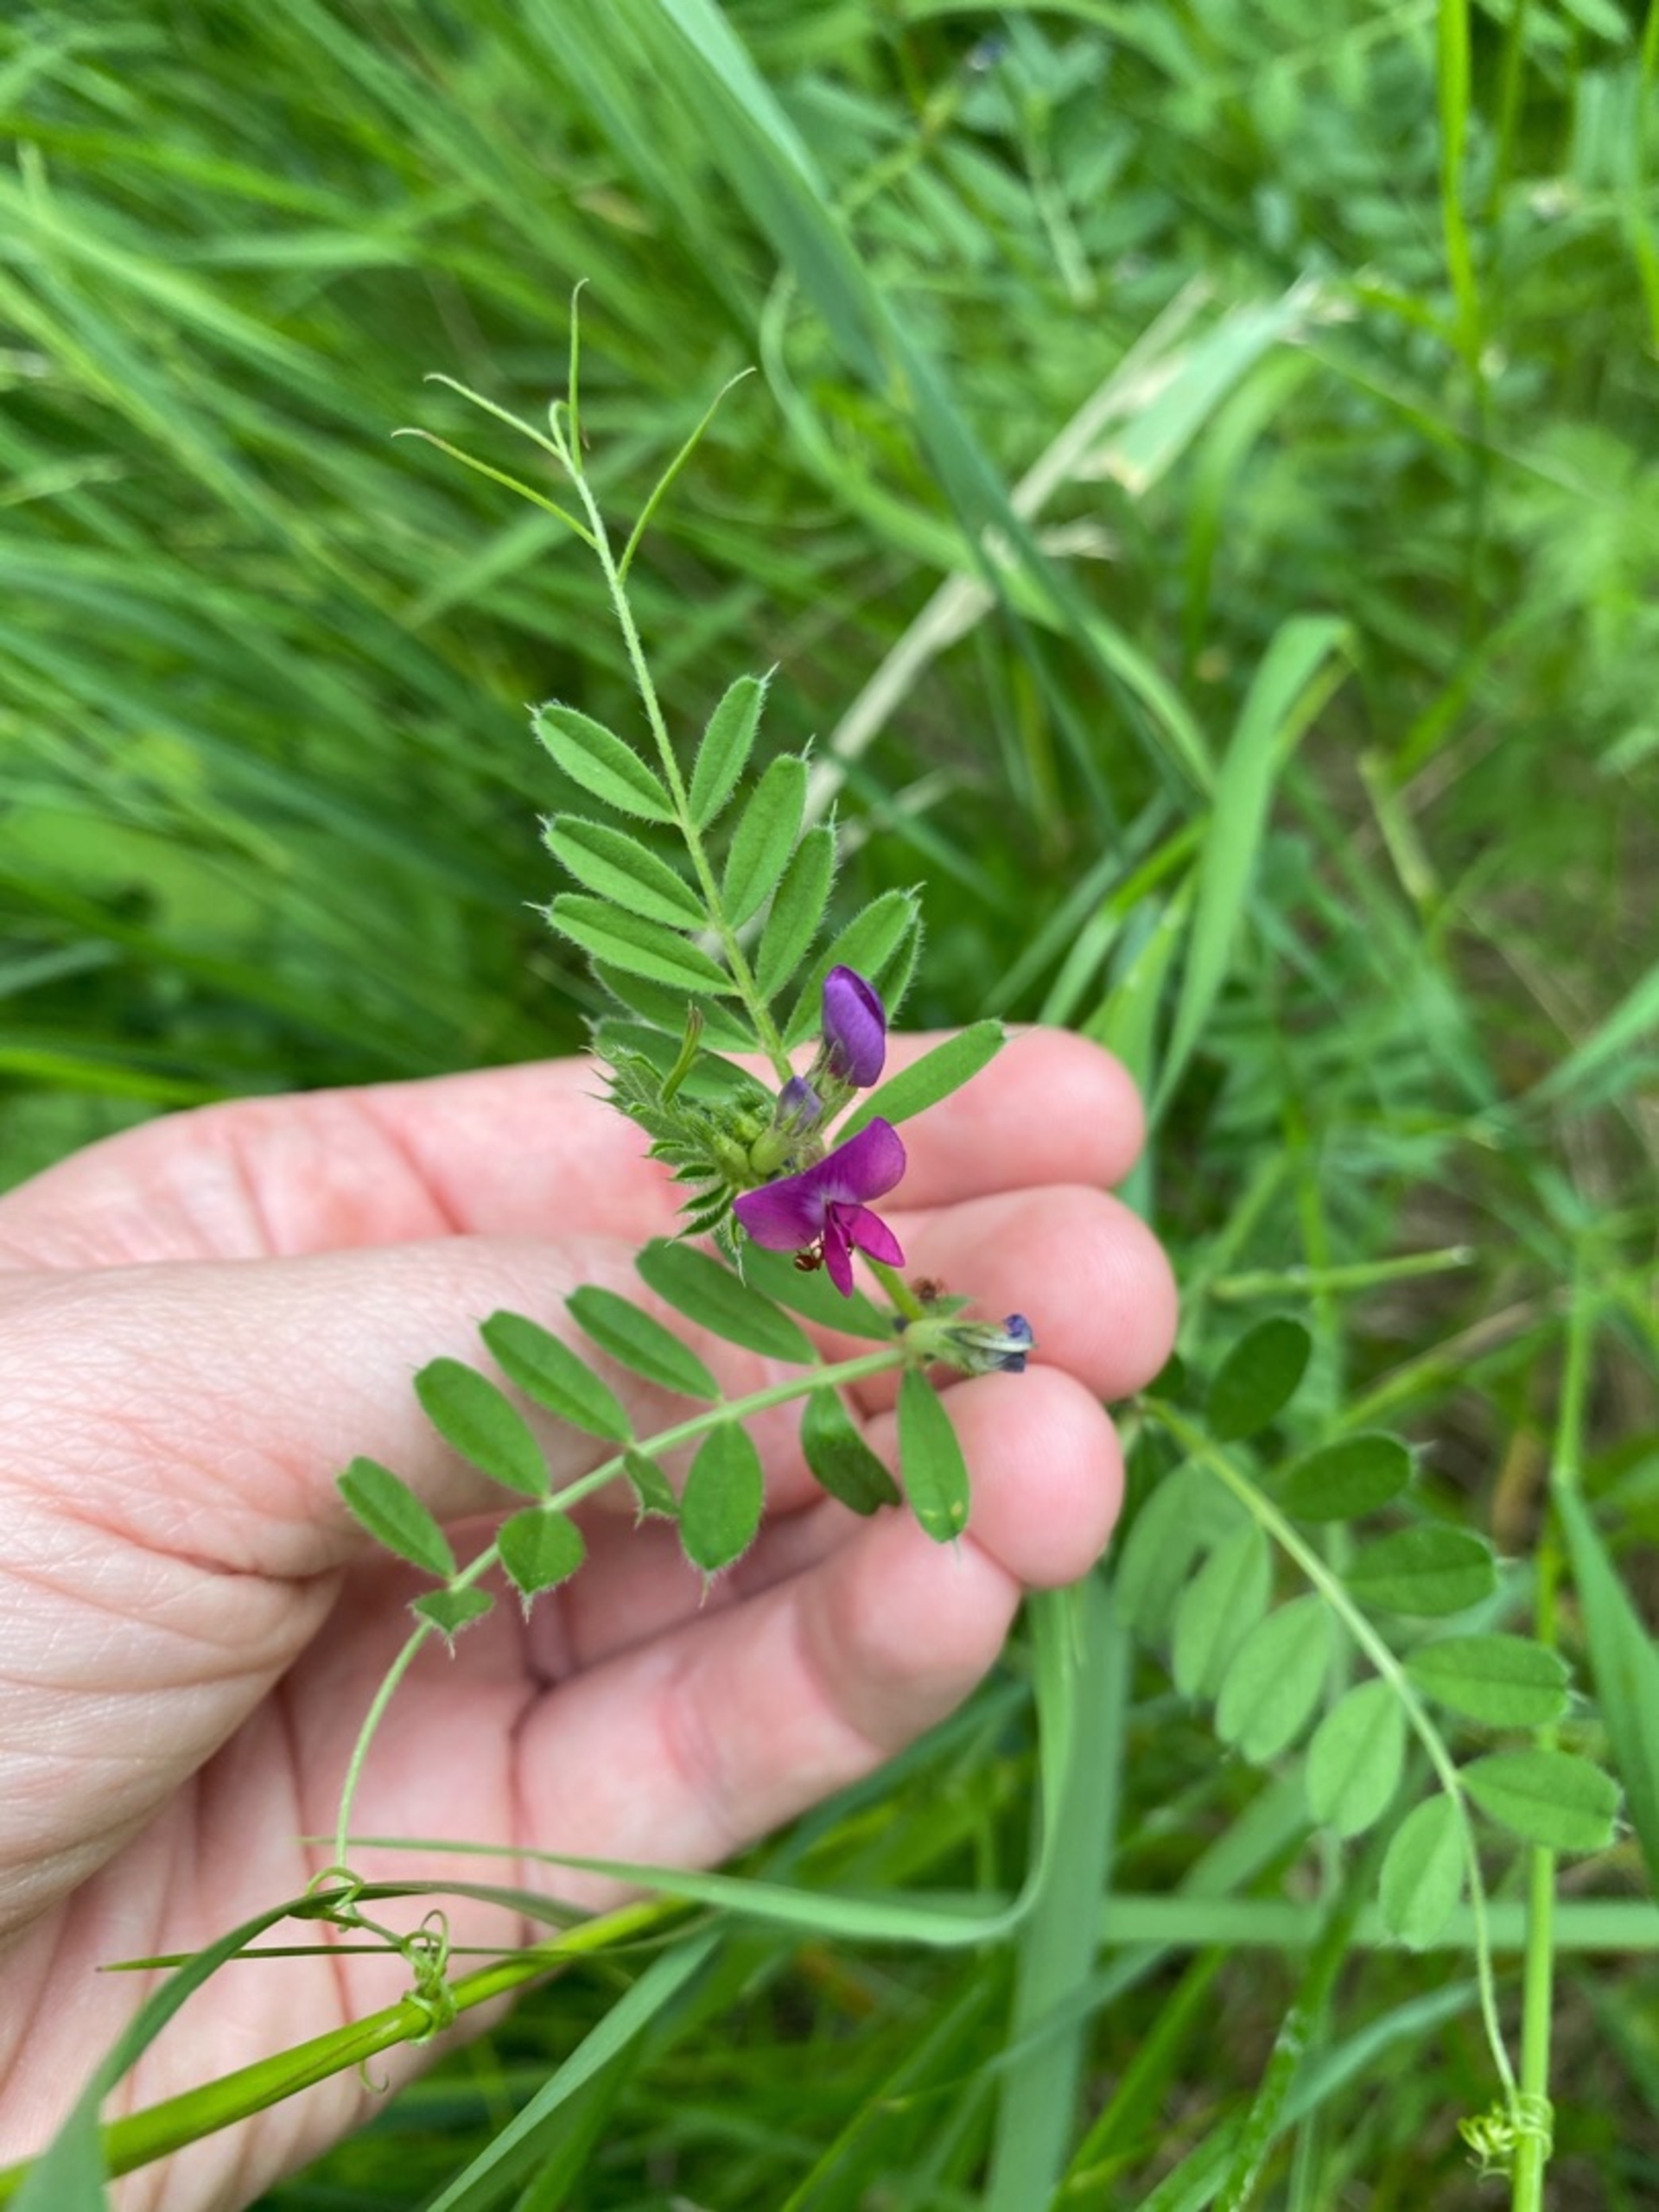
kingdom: Plantae
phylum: Tracheophyta
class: Magnoliopsida
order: Fabales
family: Fabaceae
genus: Vicia
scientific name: Vicia sativa
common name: Foder-vikke
